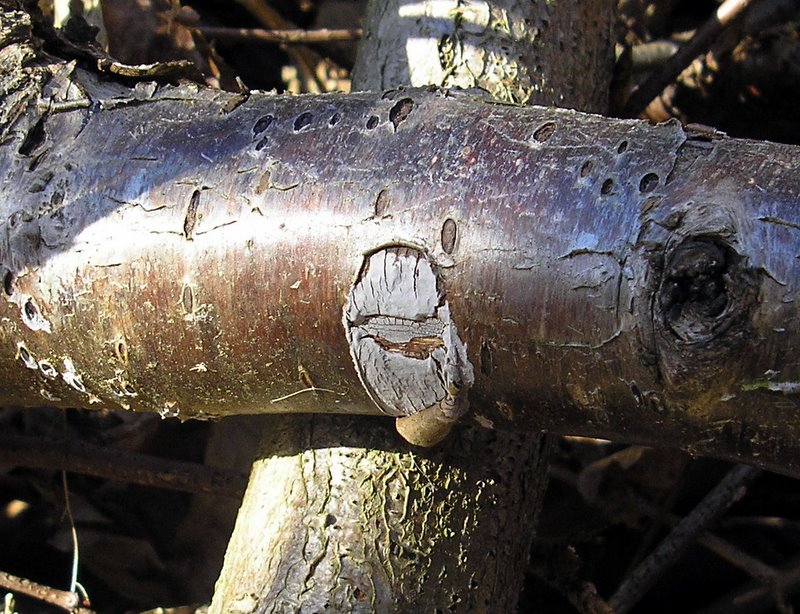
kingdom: Fungi
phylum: Basidiomycota
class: Agaricomycetes
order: Russulales
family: Peniophoraceae
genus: Peniophora
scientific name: Peniophora lycii
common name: grynet voksskind
